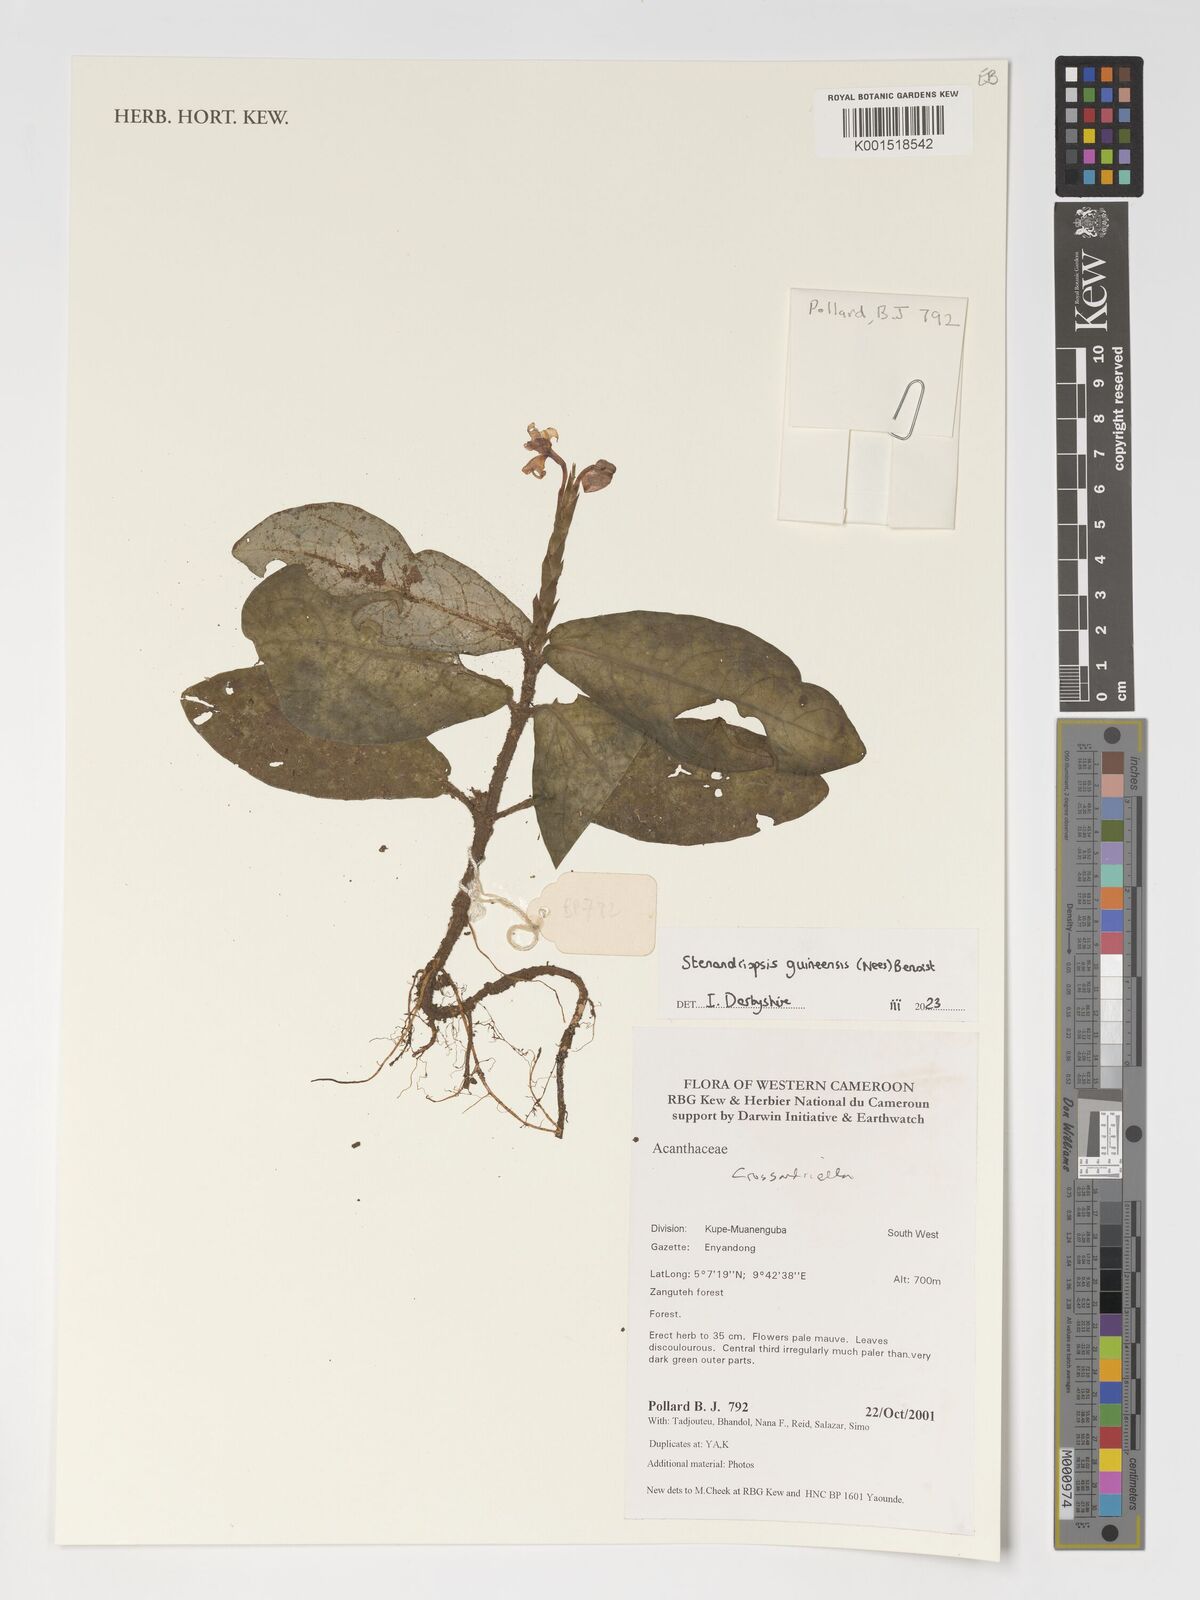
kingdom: Plantae
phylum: Tracheophyta
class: Magnoliopsida
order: Lamiales
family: Acanthaceae
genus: Stenandriopsis
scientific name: Stenandriopsis guineensis
